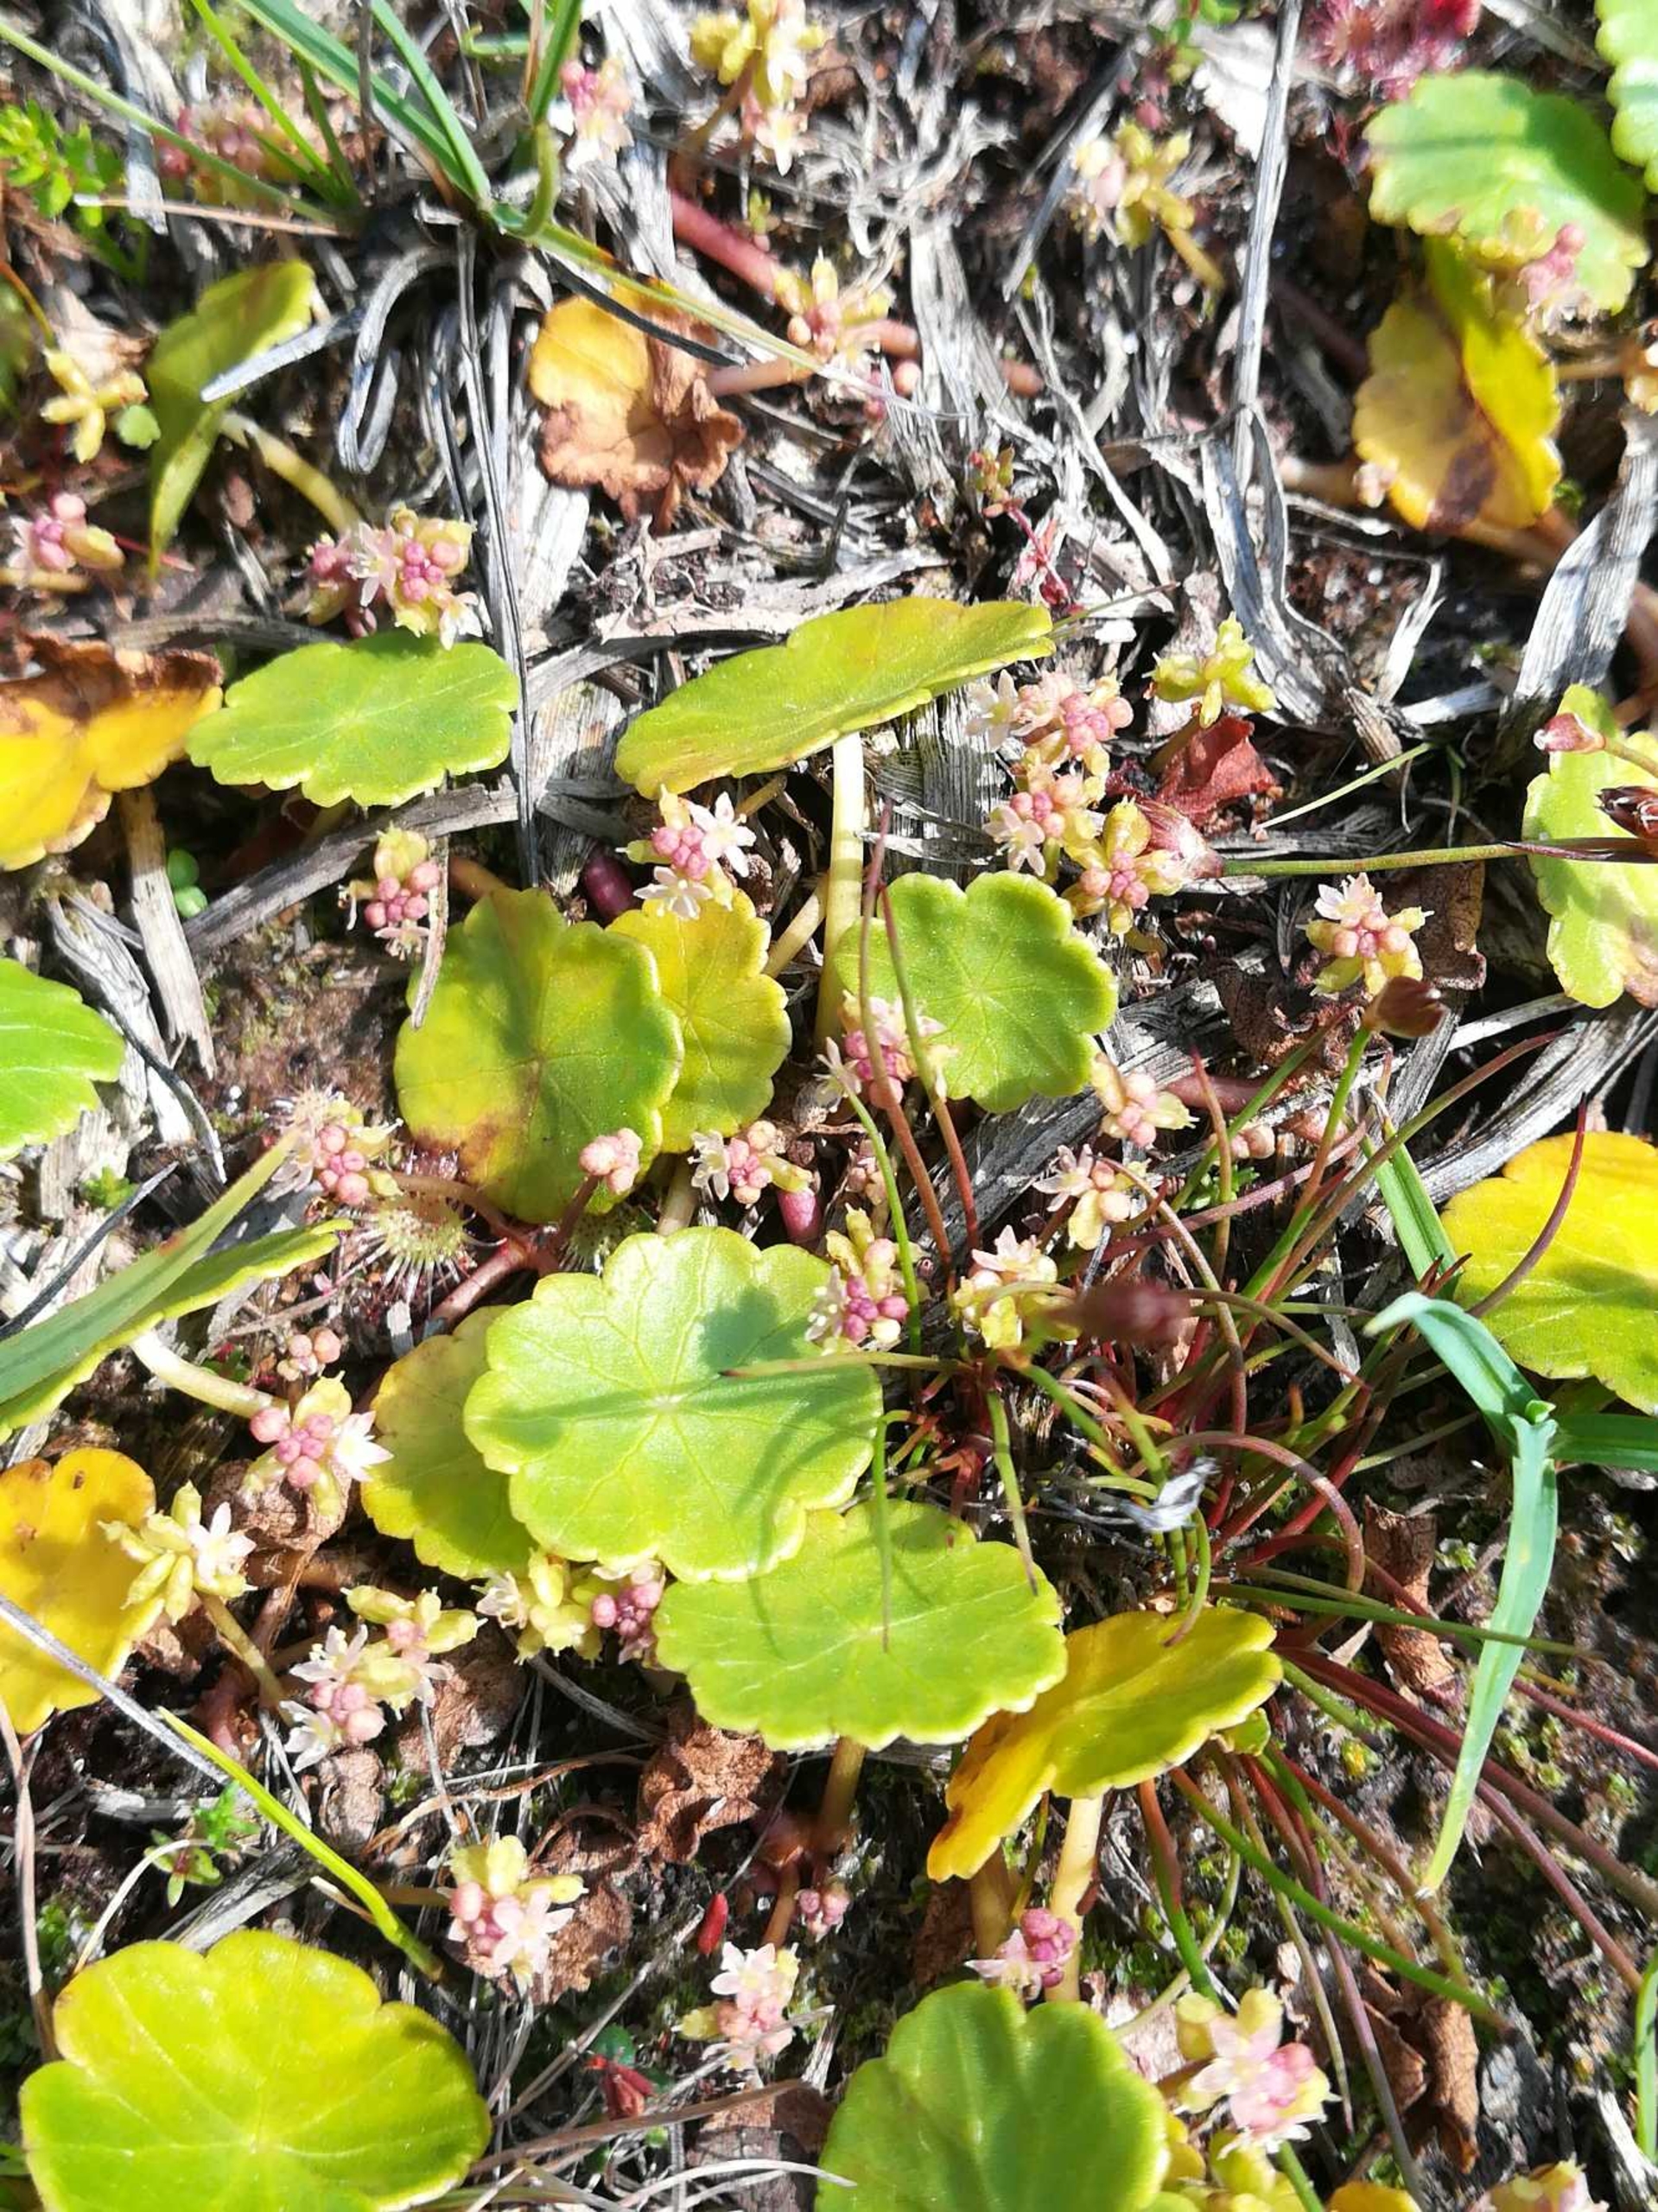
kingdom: Plantae
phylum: Tracheophyta
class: Magnoliopsida
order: Apiales
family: Araliaceae
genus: Hydrocotyle
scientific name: Hydrocotyle vulgaris
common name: Vandnavle
